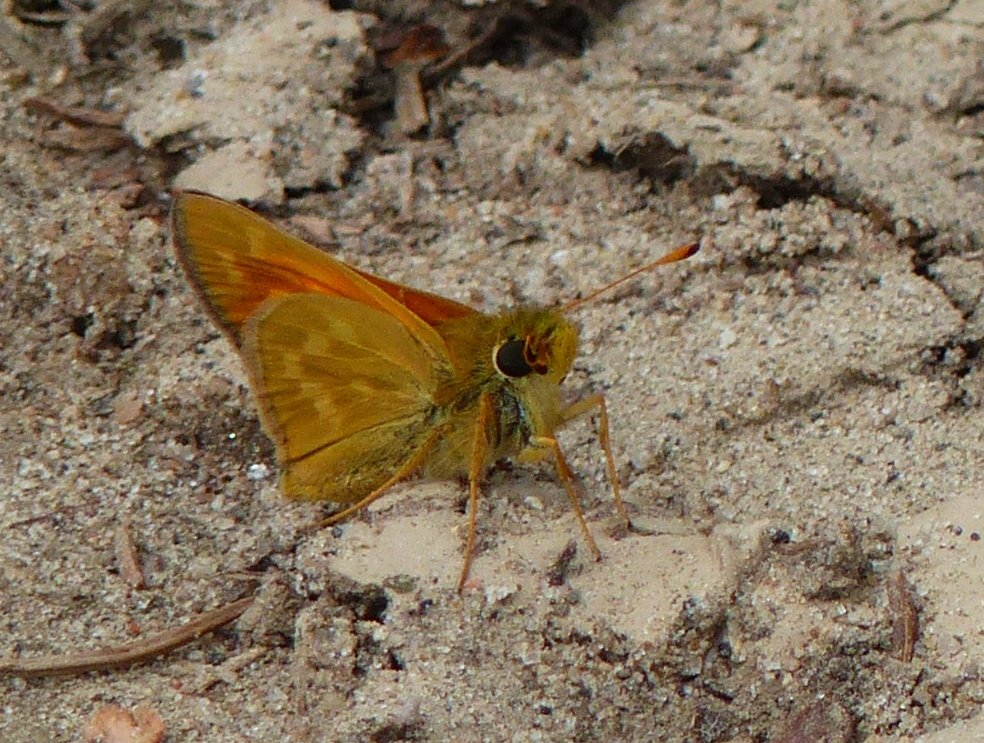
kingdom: Animalia
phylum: Arthropoda
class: Insecta
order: Lepidoptera
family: Hesperiidae
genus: Hesperia
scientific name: Hesperia sassacus
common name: Sassacus Skipper
